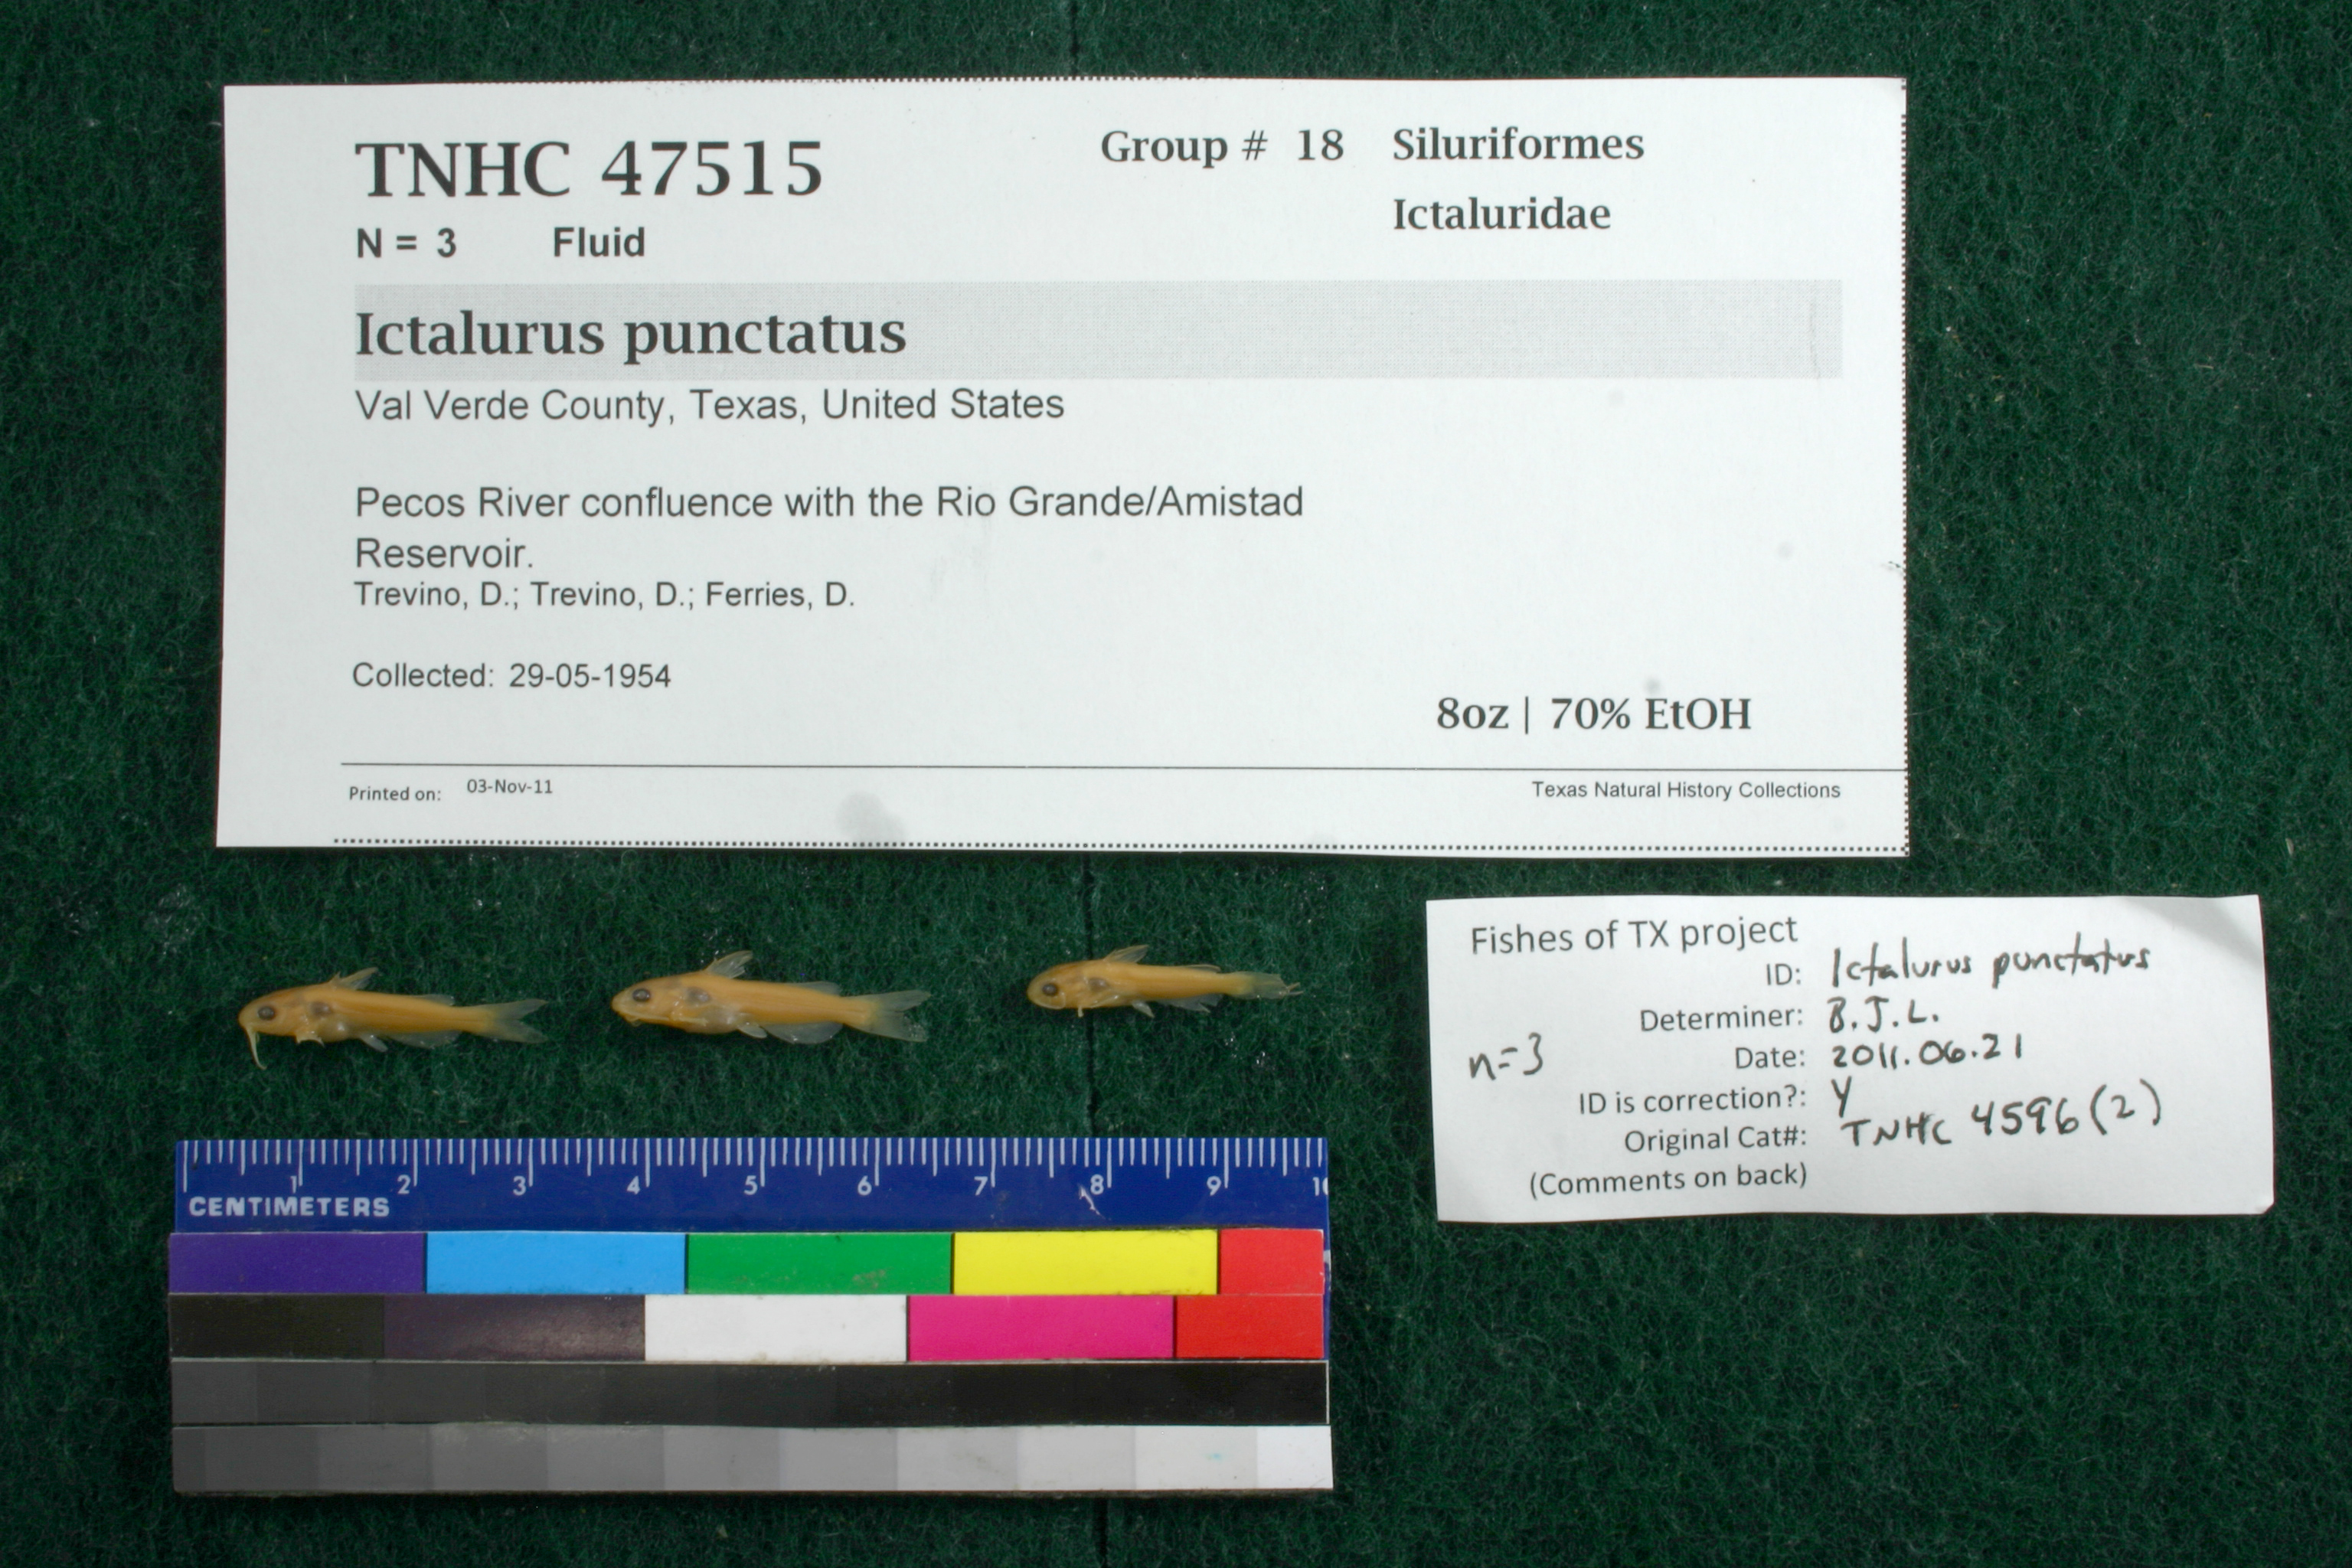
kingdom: Animalia
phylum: Chordata
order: Siluriformes
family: Ictaluridae
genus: Ictalurus
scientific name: Ictalurus punctatus
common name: Channel catfish
